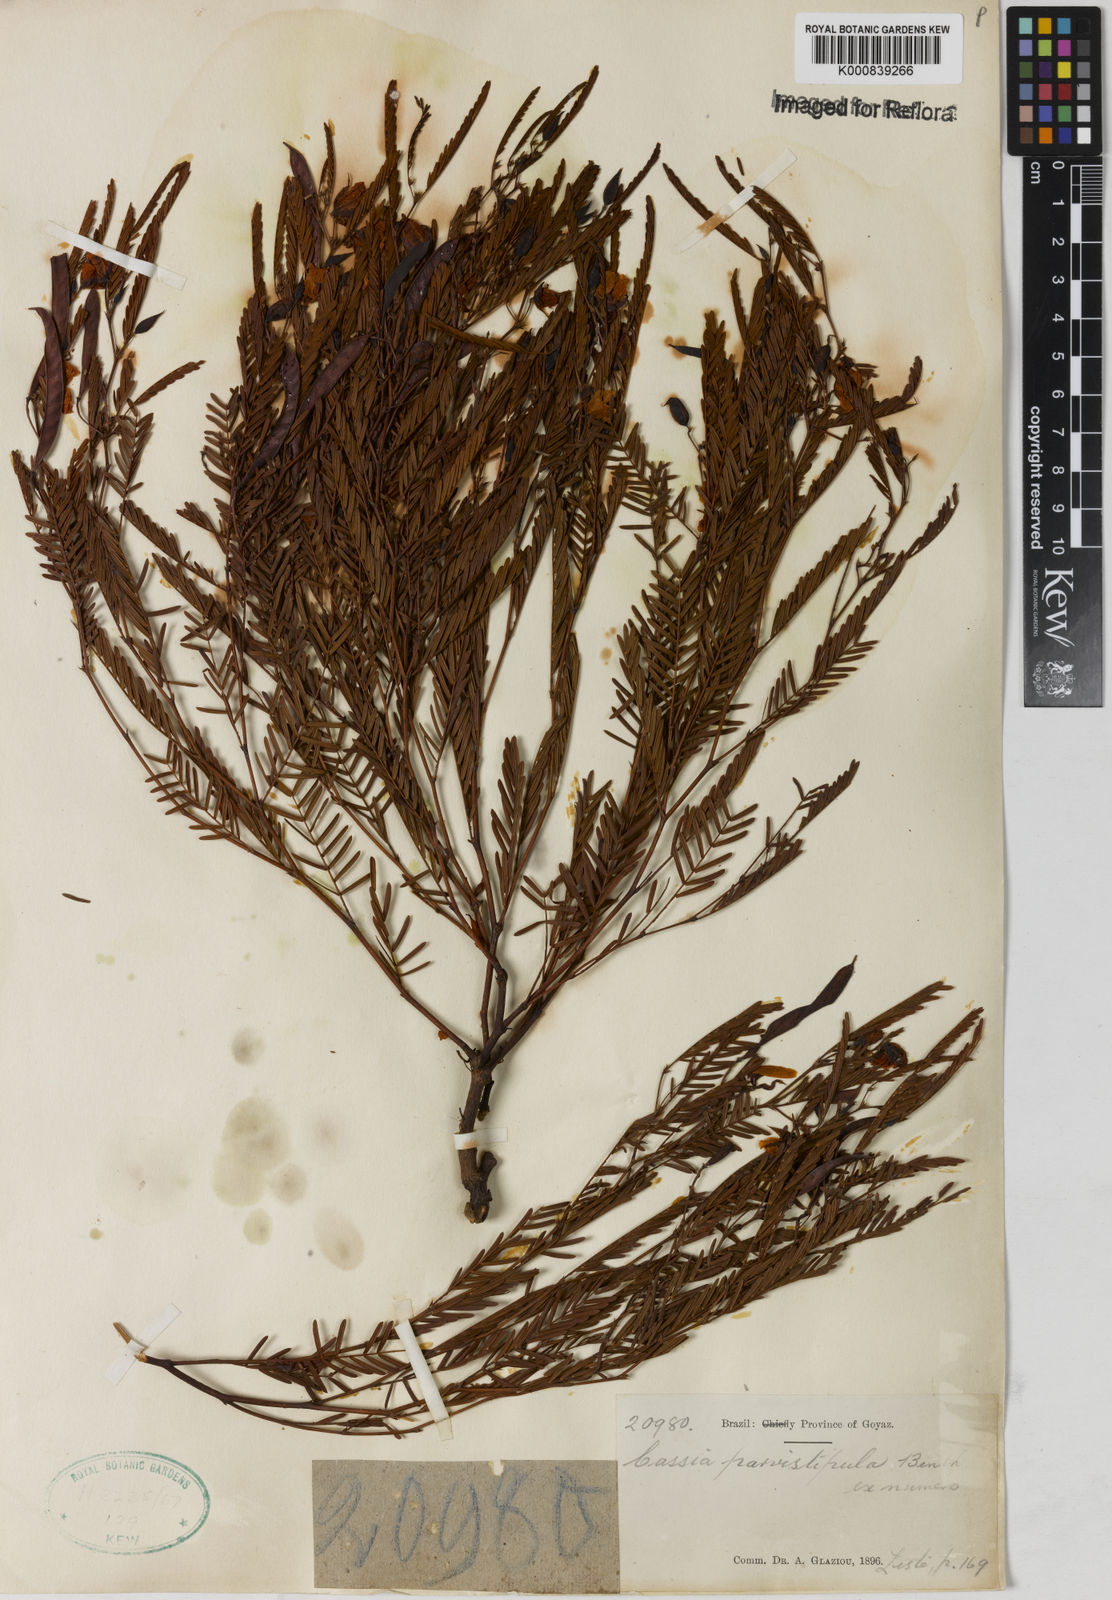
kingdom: Plantae
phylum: Tracheophyta
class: Magnoliopsida
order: Fabales
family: Fabaceae
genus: Chamaecrista
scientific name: Chamaecrista parvistipula
